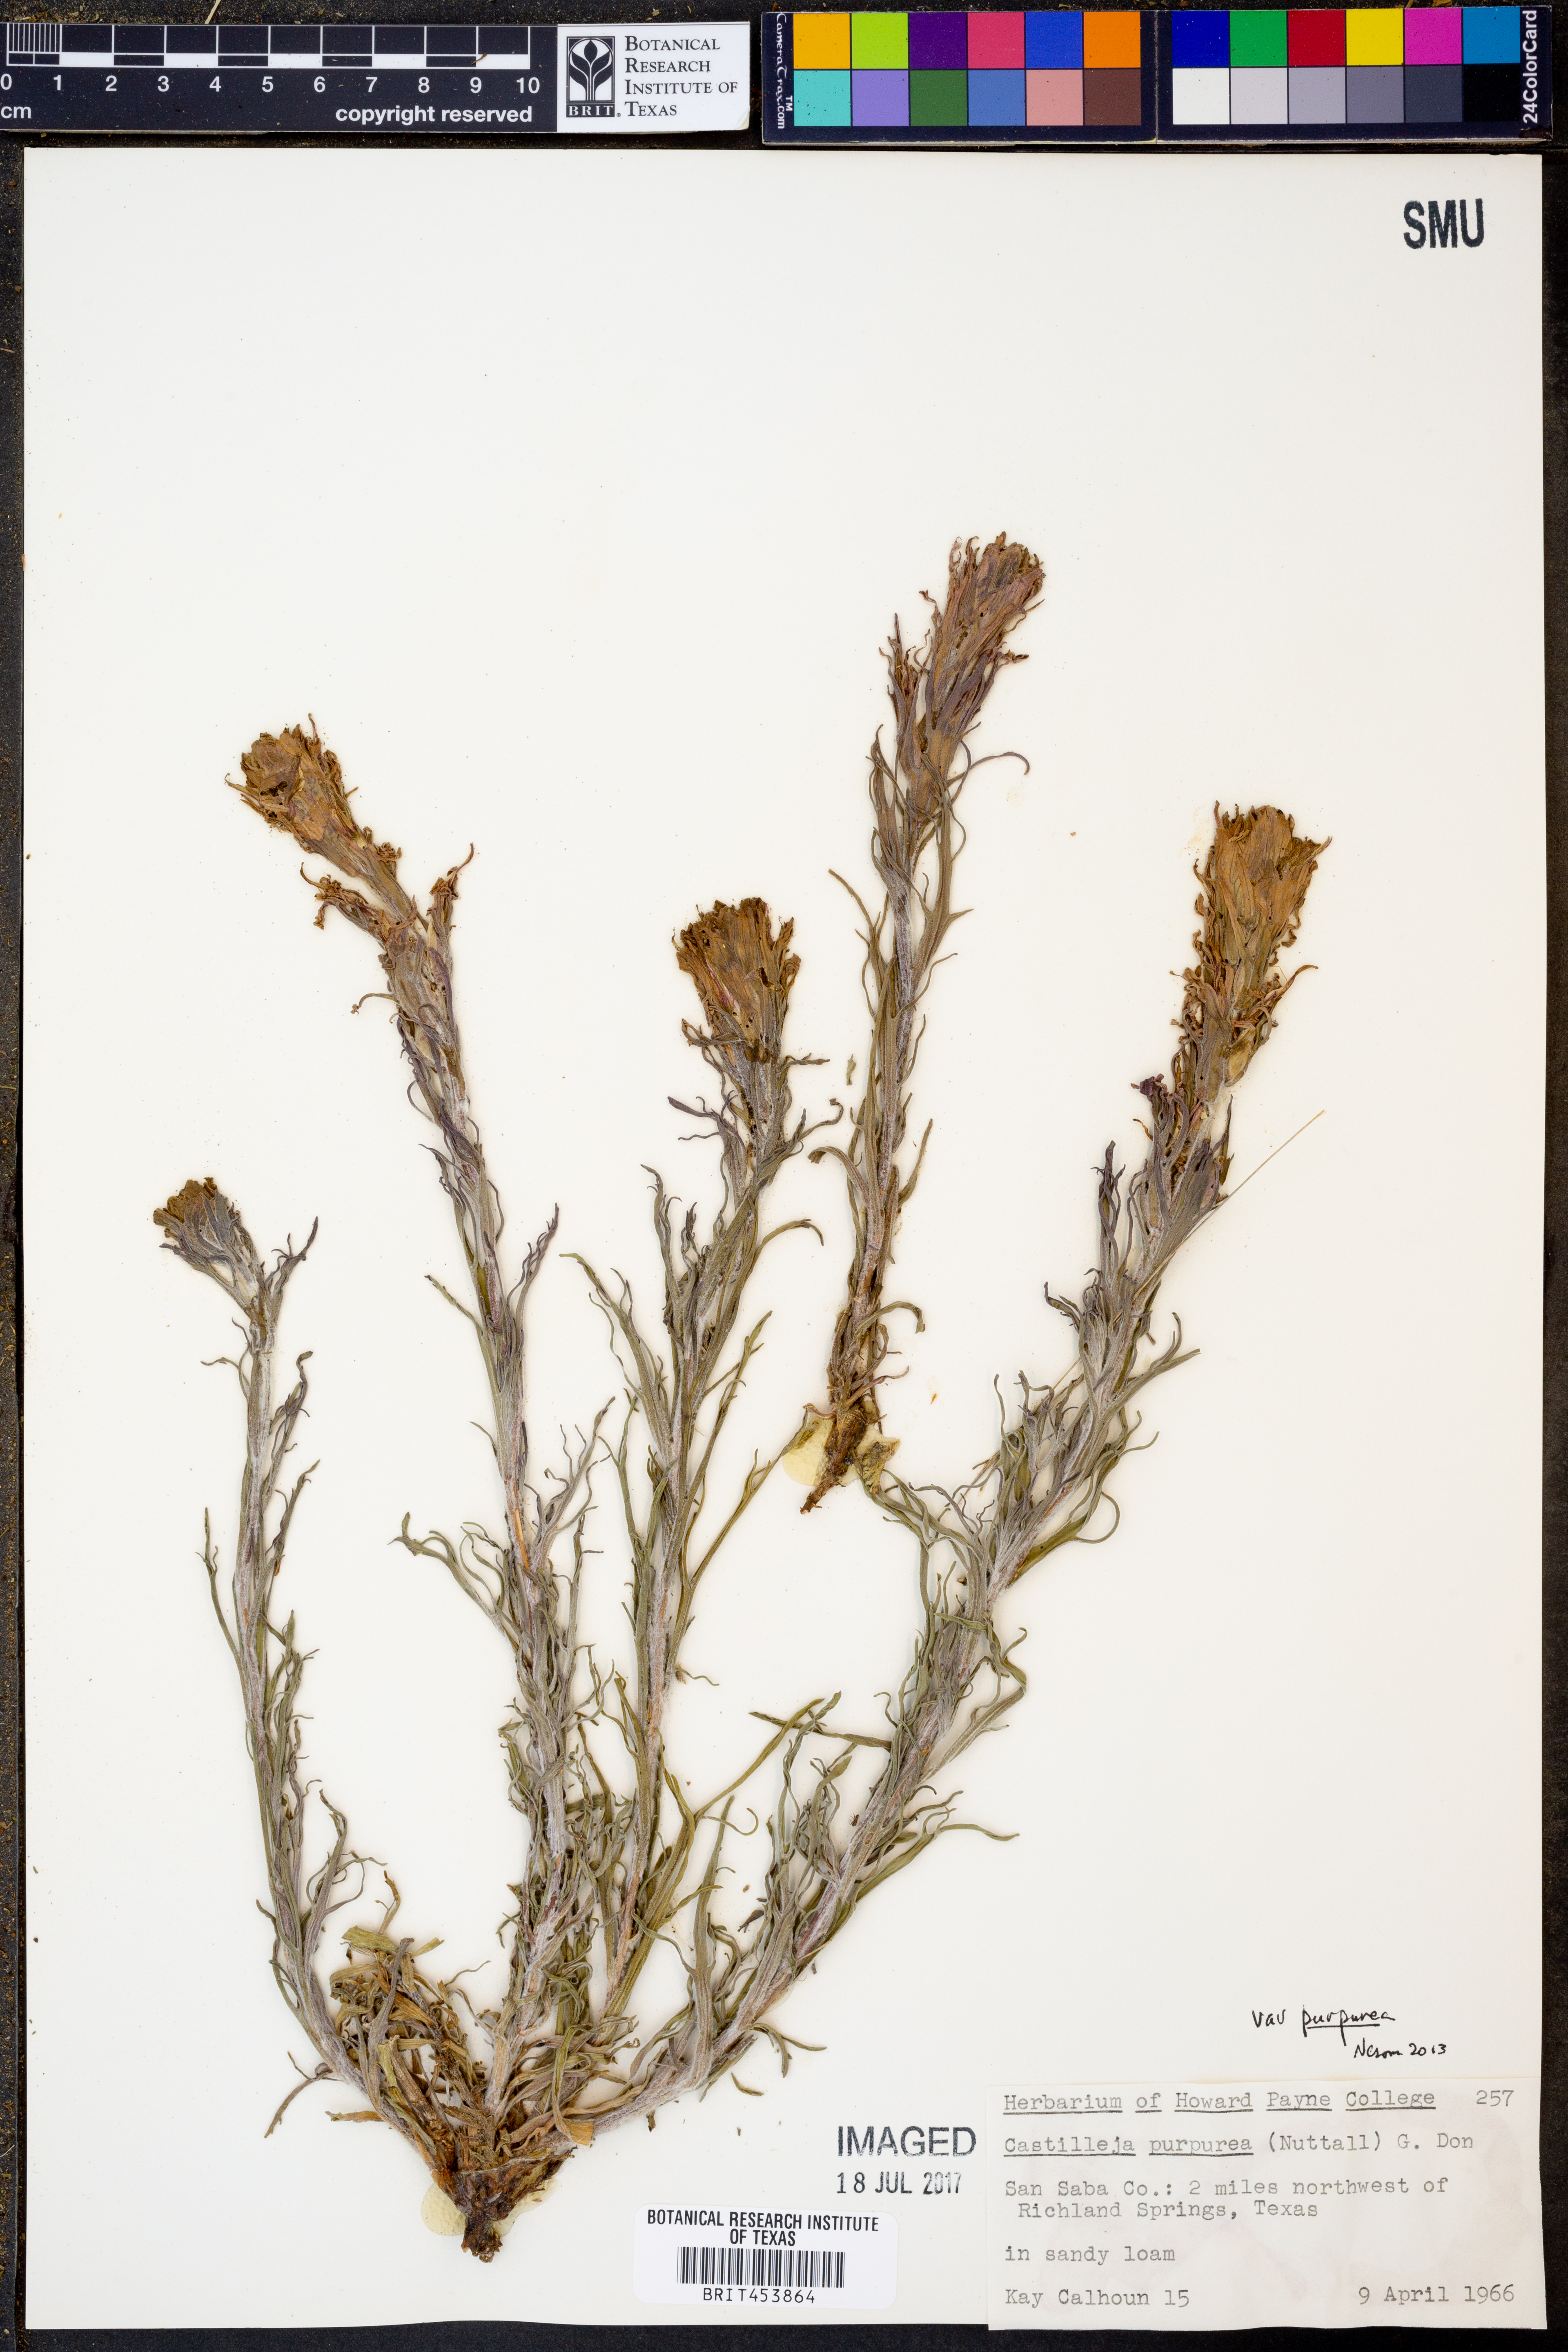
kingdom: Plantae
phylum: Tracheophyta
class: Magnoliopsida
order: Lamiales
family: Orobanchaceae
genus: Castilleja
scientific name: Castilleja purpurea
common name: Plains paintbrush
